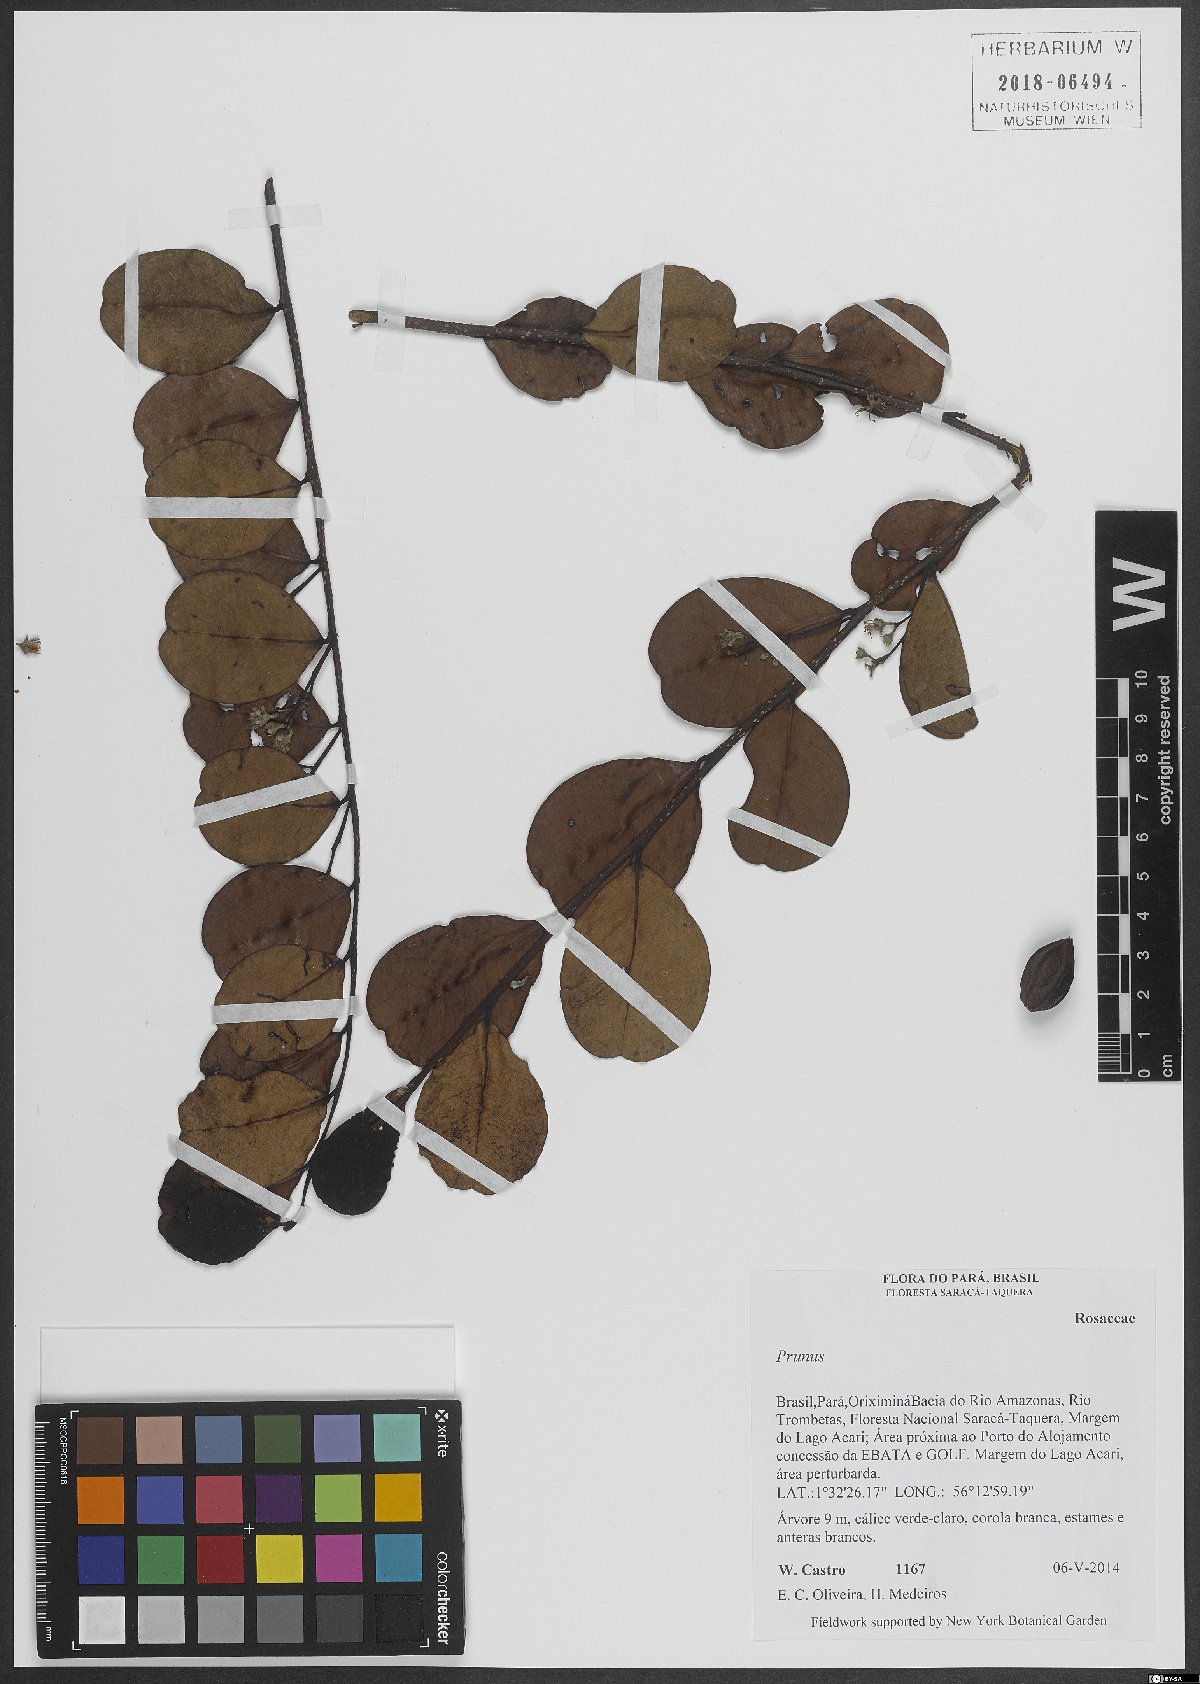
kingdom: Plantae
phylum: Tracheophyta
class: Magnoliopsida
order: Rosales
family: Rosaceae
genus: Prunus
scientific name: Prunus
